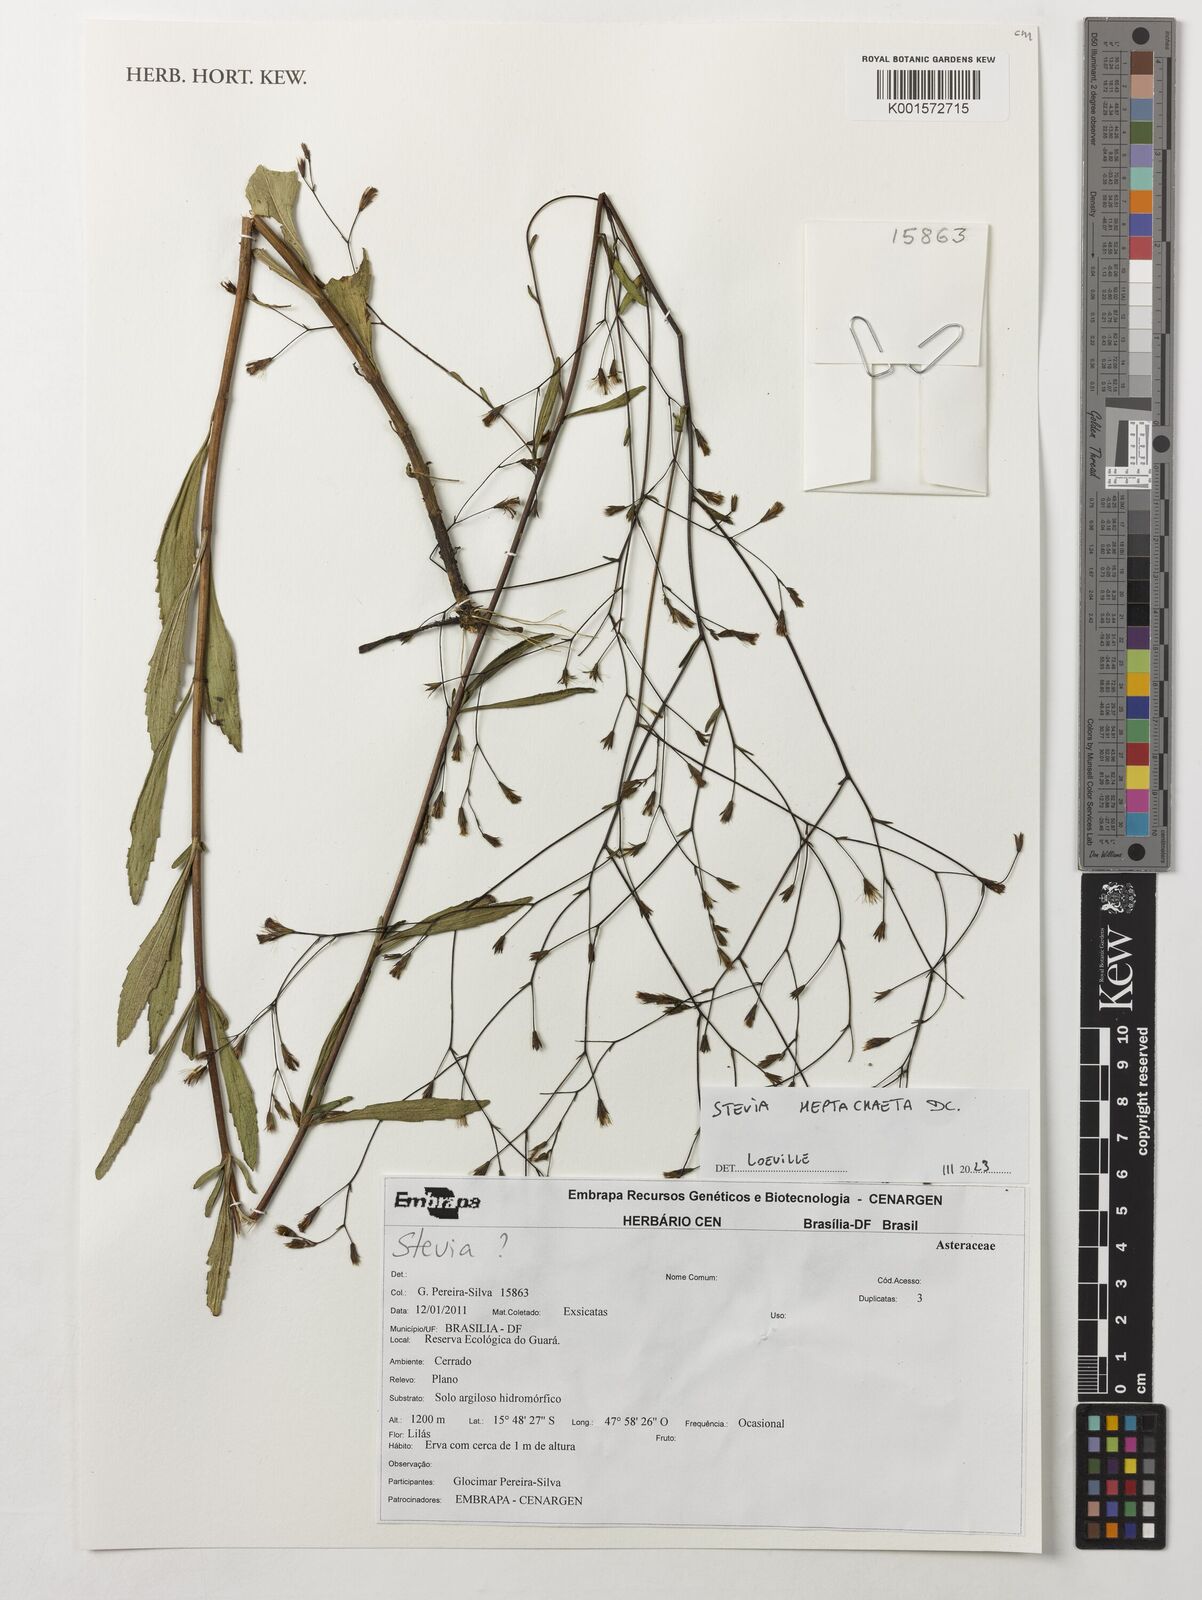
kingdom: Plantae
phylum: Tracheophyta
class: Magnoliopsida
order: Asterales
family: Asteraceae
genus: Stevia
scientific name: Stevia heptachaeta
